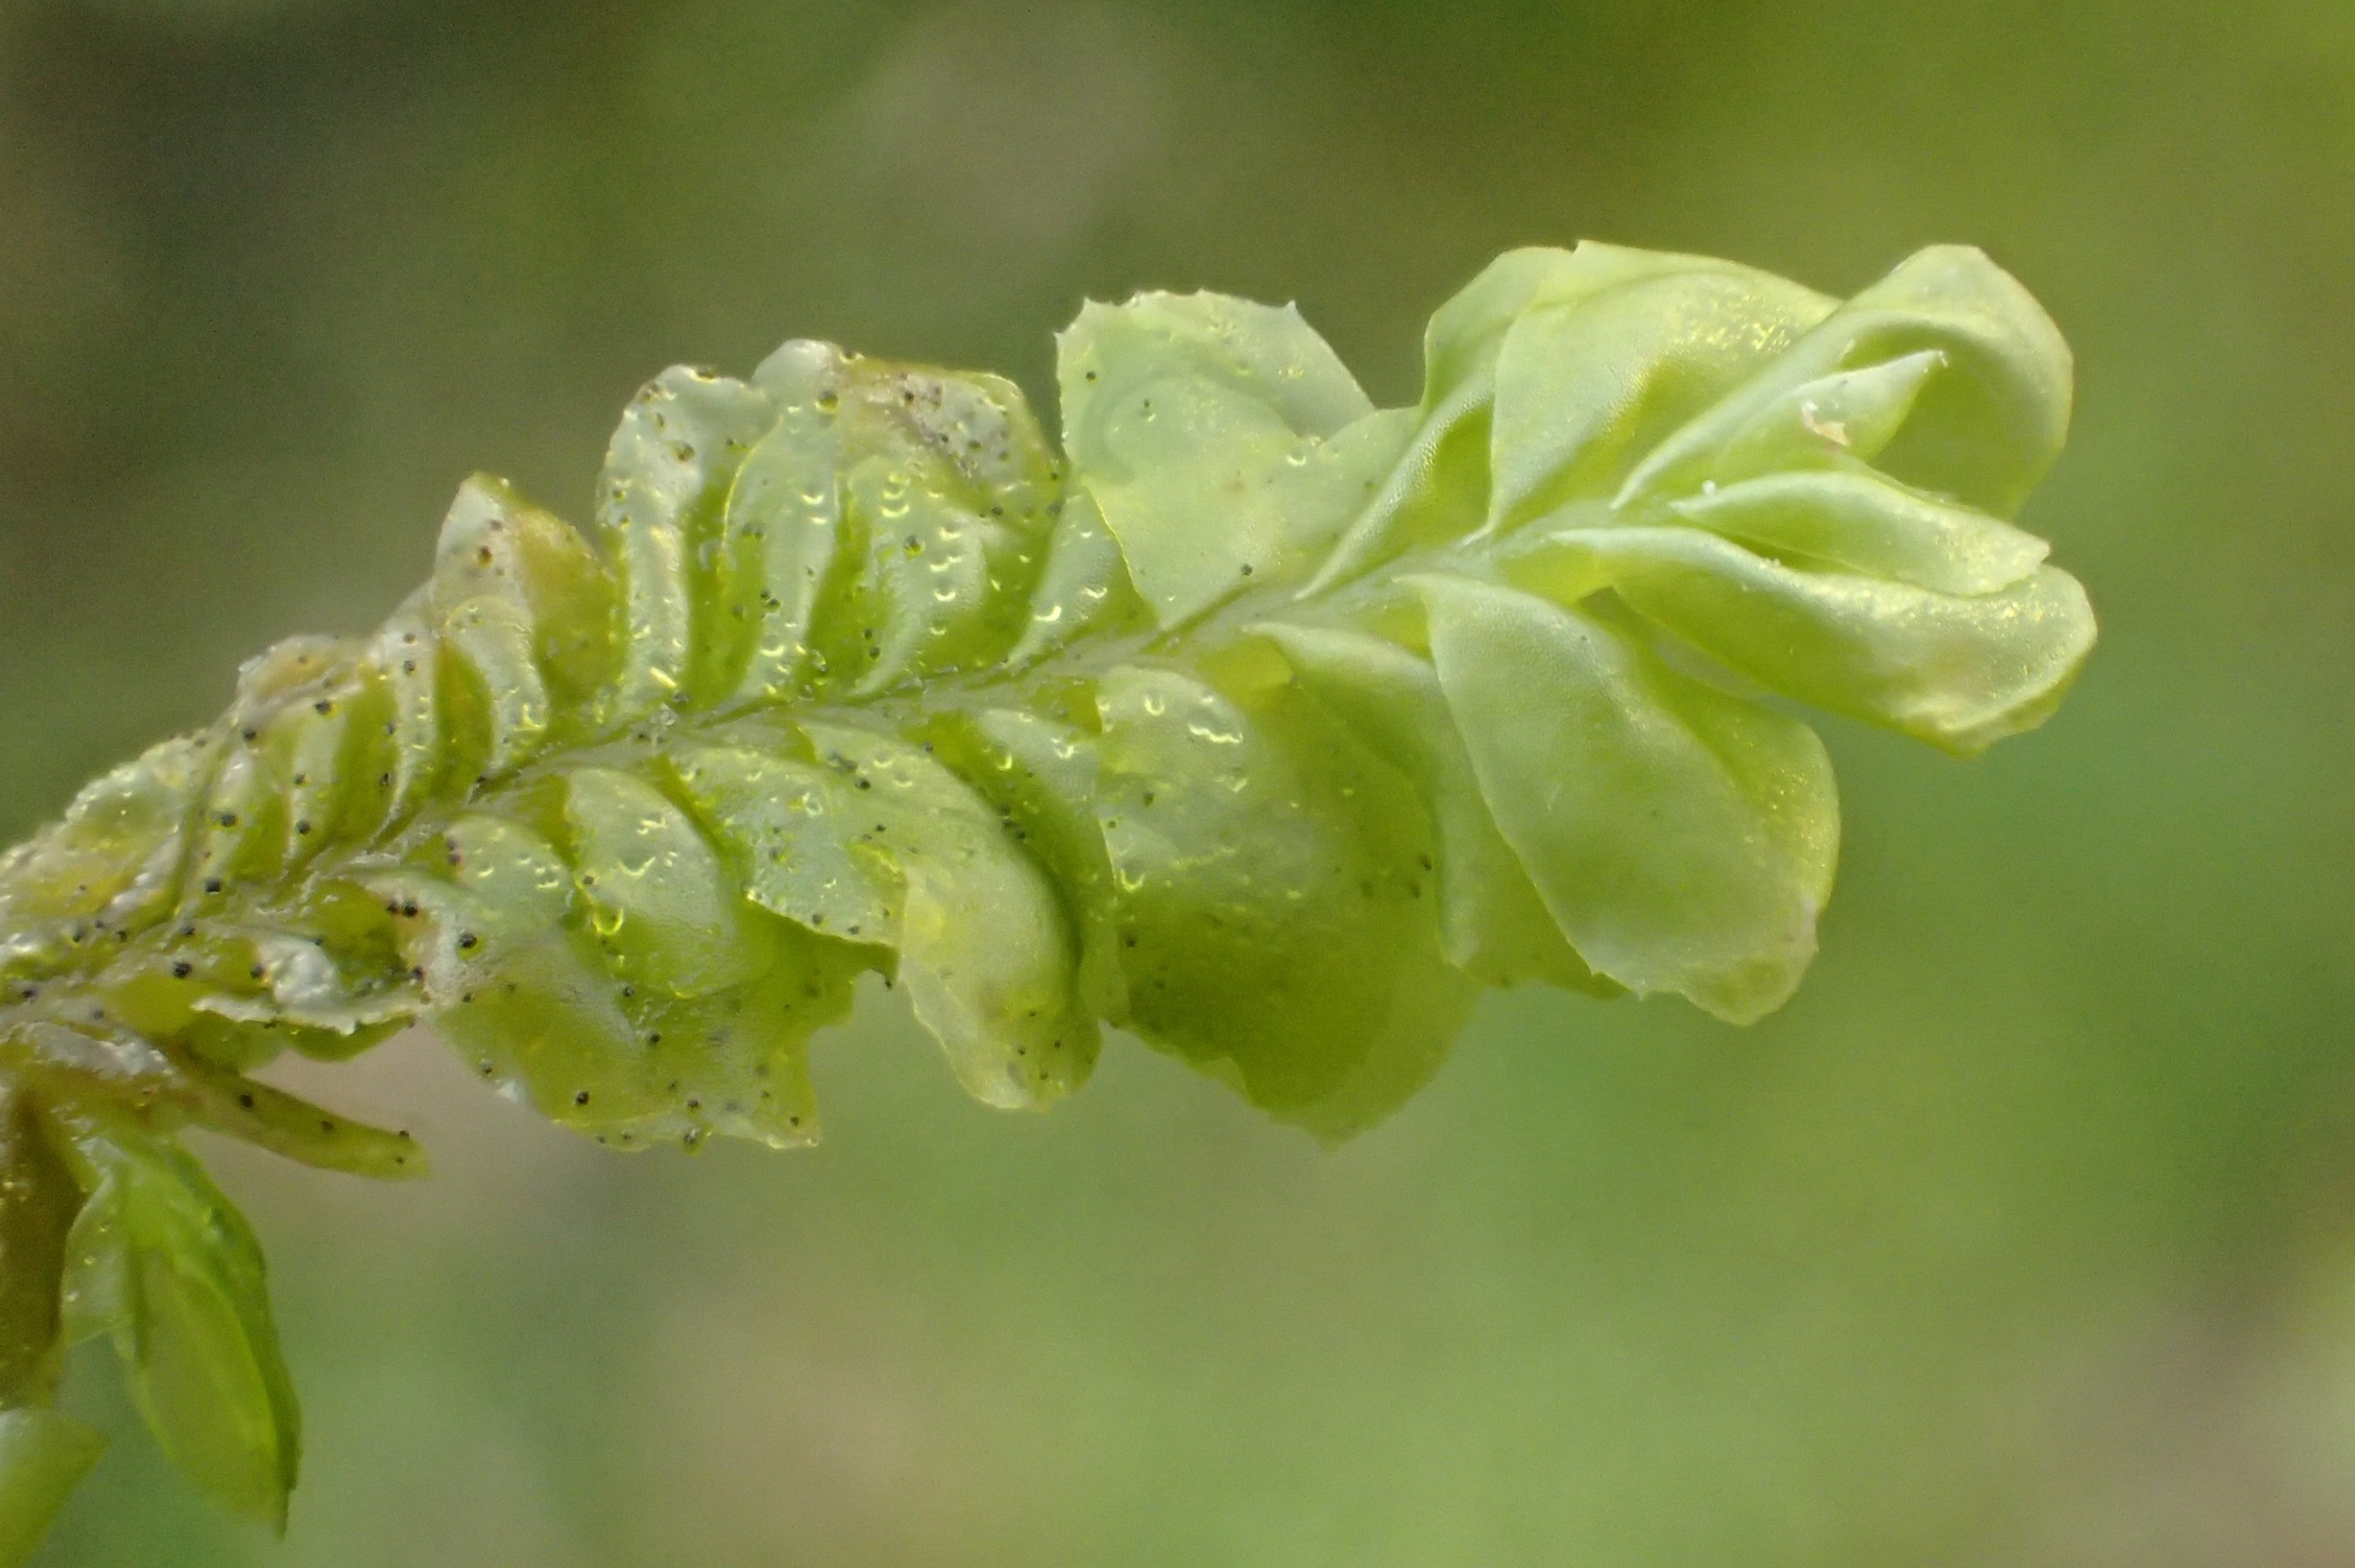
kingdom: Plantae
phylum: Marchantiophyta
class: Jungermanniopsida
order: Jungermanniales
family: Plagiochilaceae
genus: Plagiochila
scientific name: Plagiochila asplenioides
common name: Radeløv-hindeblad
